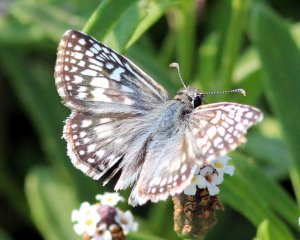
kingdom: Animalia
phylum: Arthropoda
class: Insecta
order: Lepidoptera
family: Hesperiidae
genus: Pyrgus
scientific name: Pyrgus oileus
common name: Desert Checkered-Skipper
